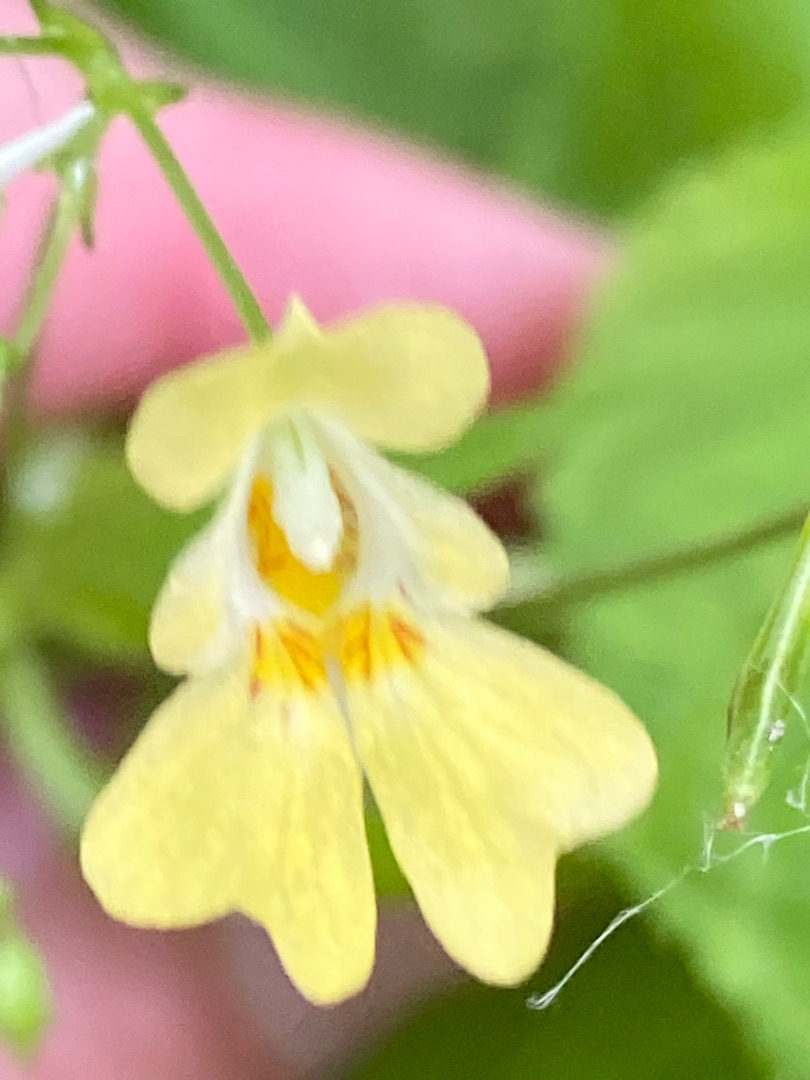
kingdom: Plantae
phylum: Tracheophyta
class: Magnoliopsida
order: Ericales
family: Balsaminaceae
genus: Impatiens
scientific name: Impatiens parviflora
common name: Småblomstret balsamin
